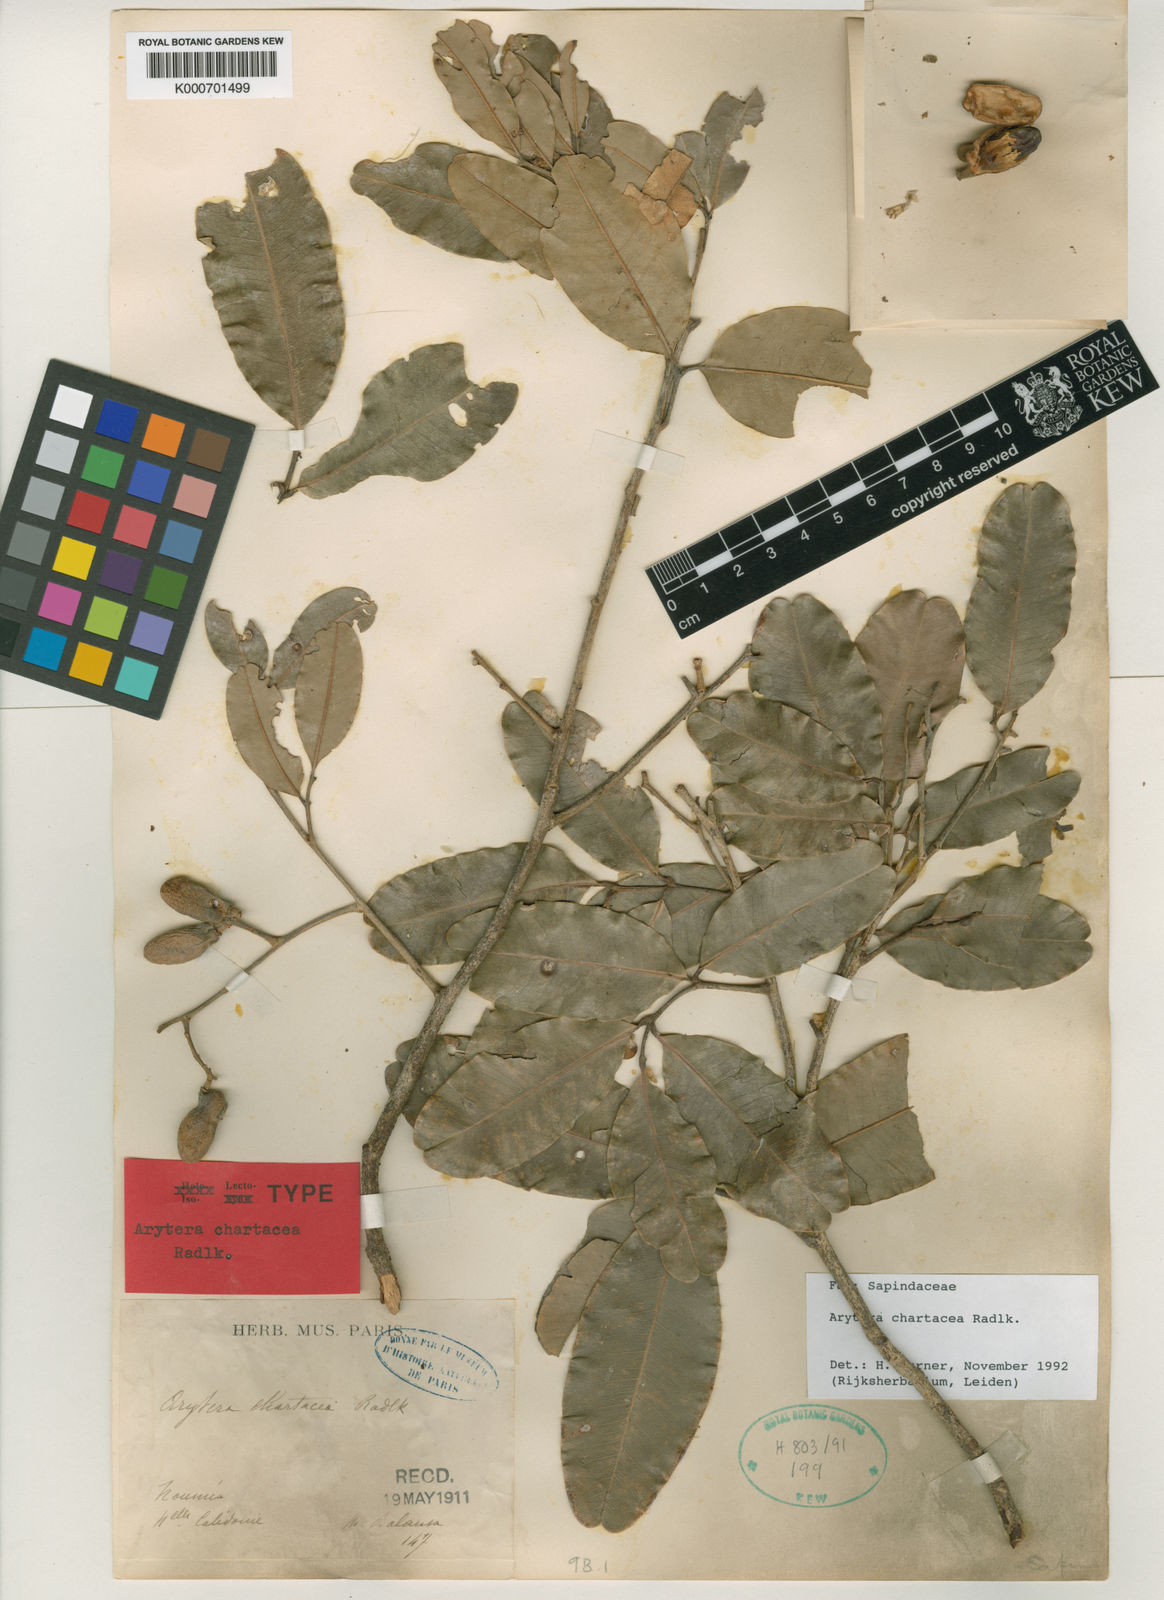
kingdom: Plantae
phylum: Tracheophyta
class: Magnoliopsida
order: Sapindales
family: Sapindaceae
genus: Neoarytera
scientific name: Neoarytera chartacea
